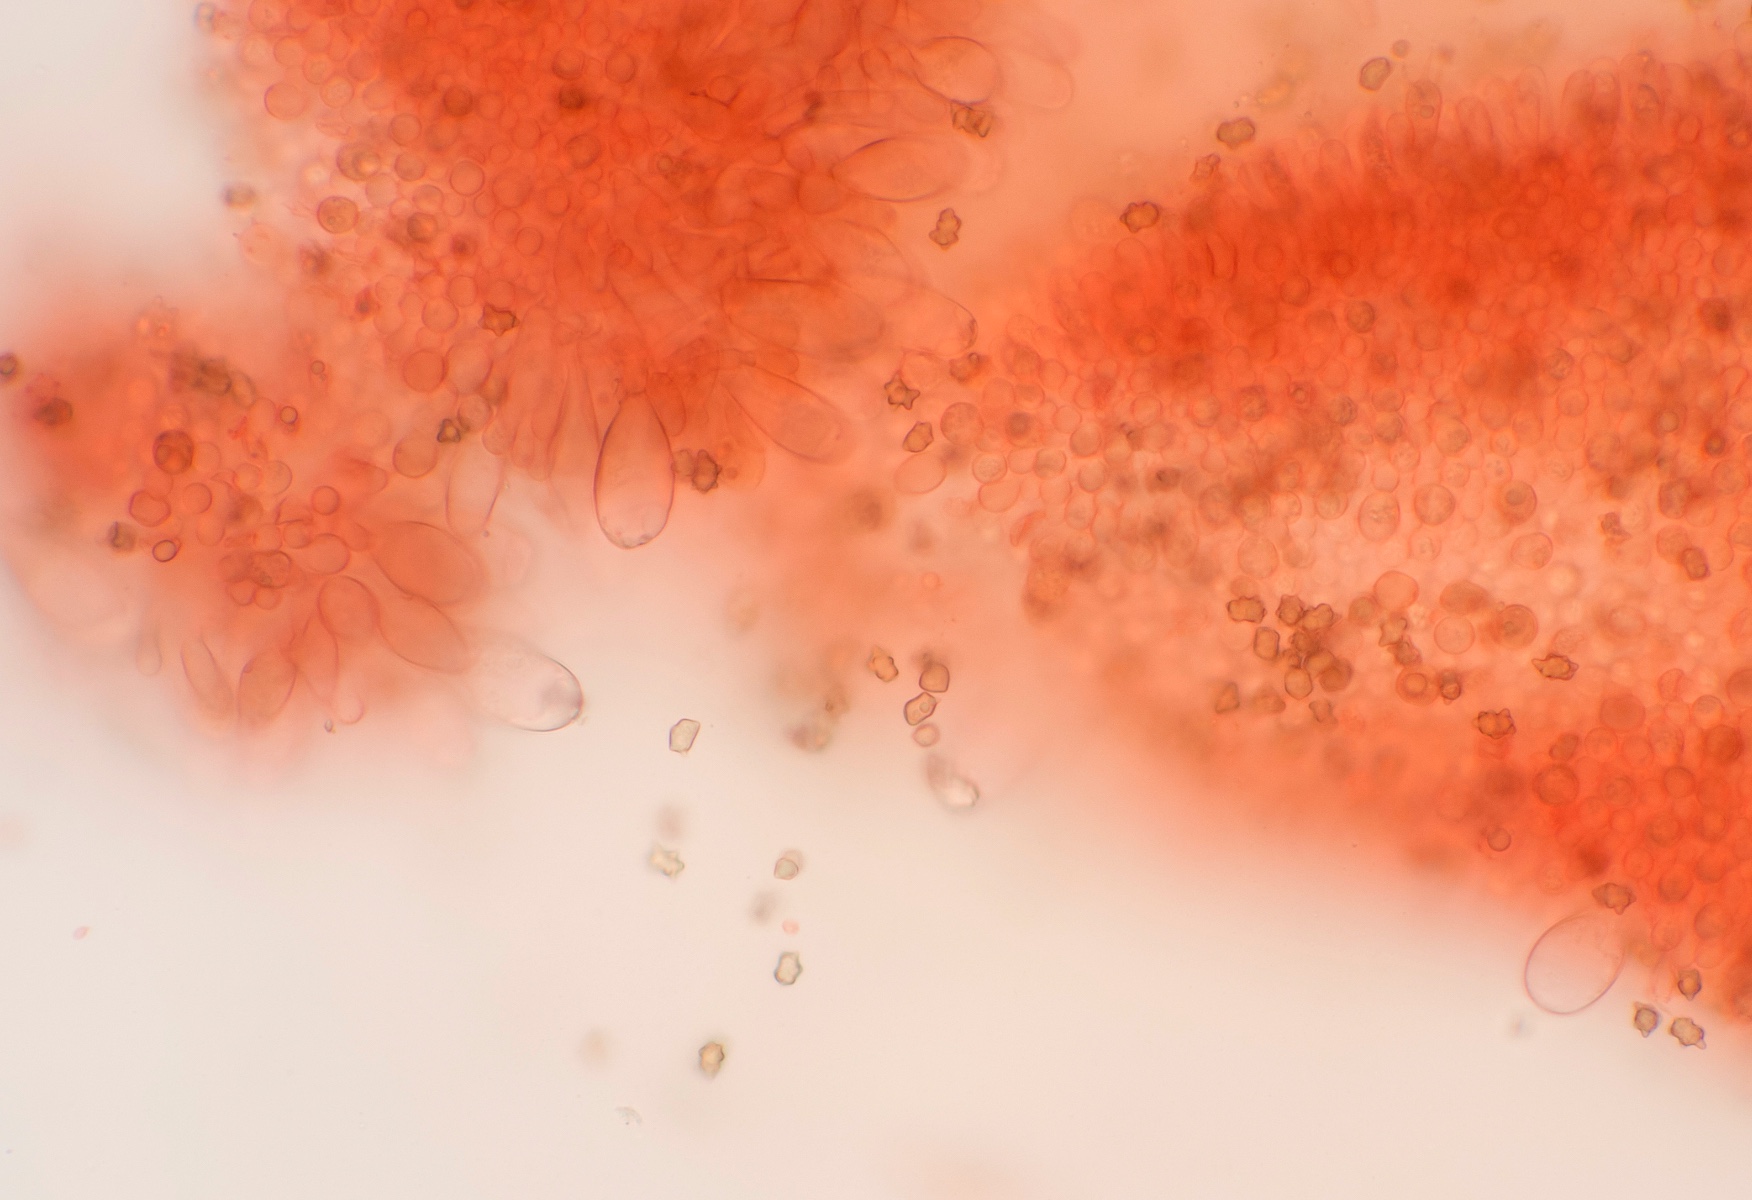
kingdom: Fungi
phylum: Basidiomycota
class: Agaricomycetes
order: Agaricales
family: Inocybaceae
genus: Inocybe
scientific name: Inocybe lanuginosa
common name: uldskællet trævlhat
